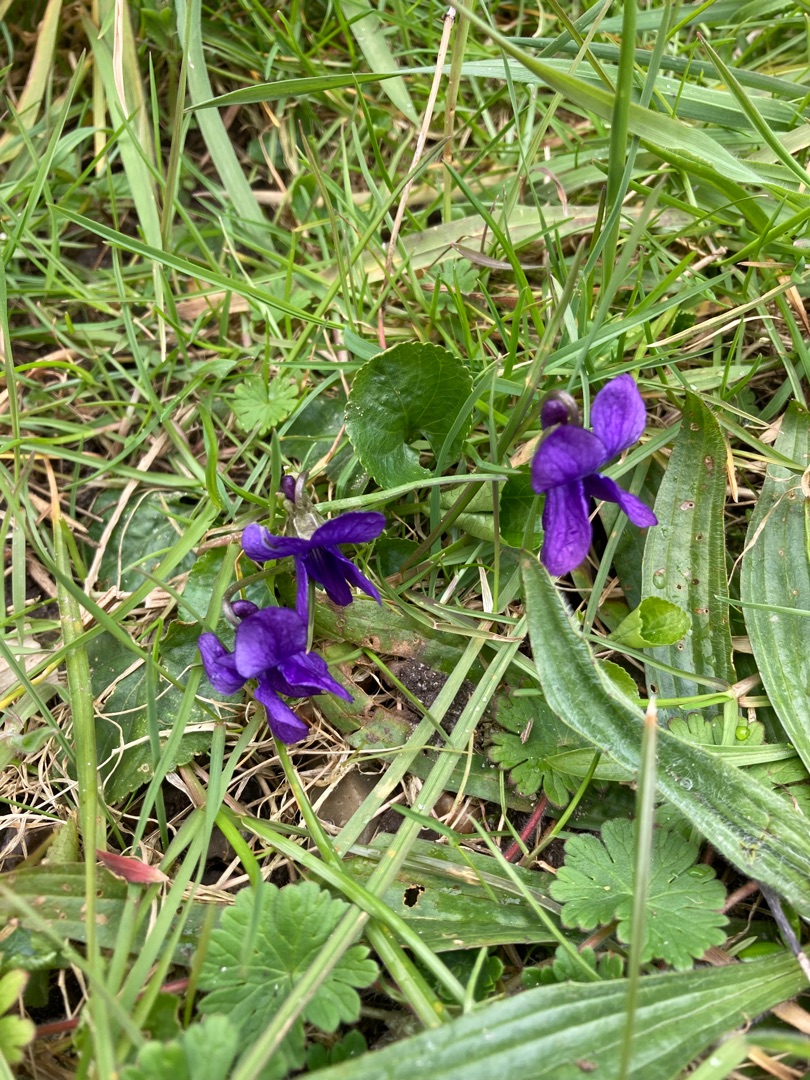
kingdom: Plantae
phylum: Tracheophyta
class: Magnoliopsida
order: Malpighiales
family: Violaceae
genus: Viola
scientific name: Viola odorata
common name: Marts-viol
